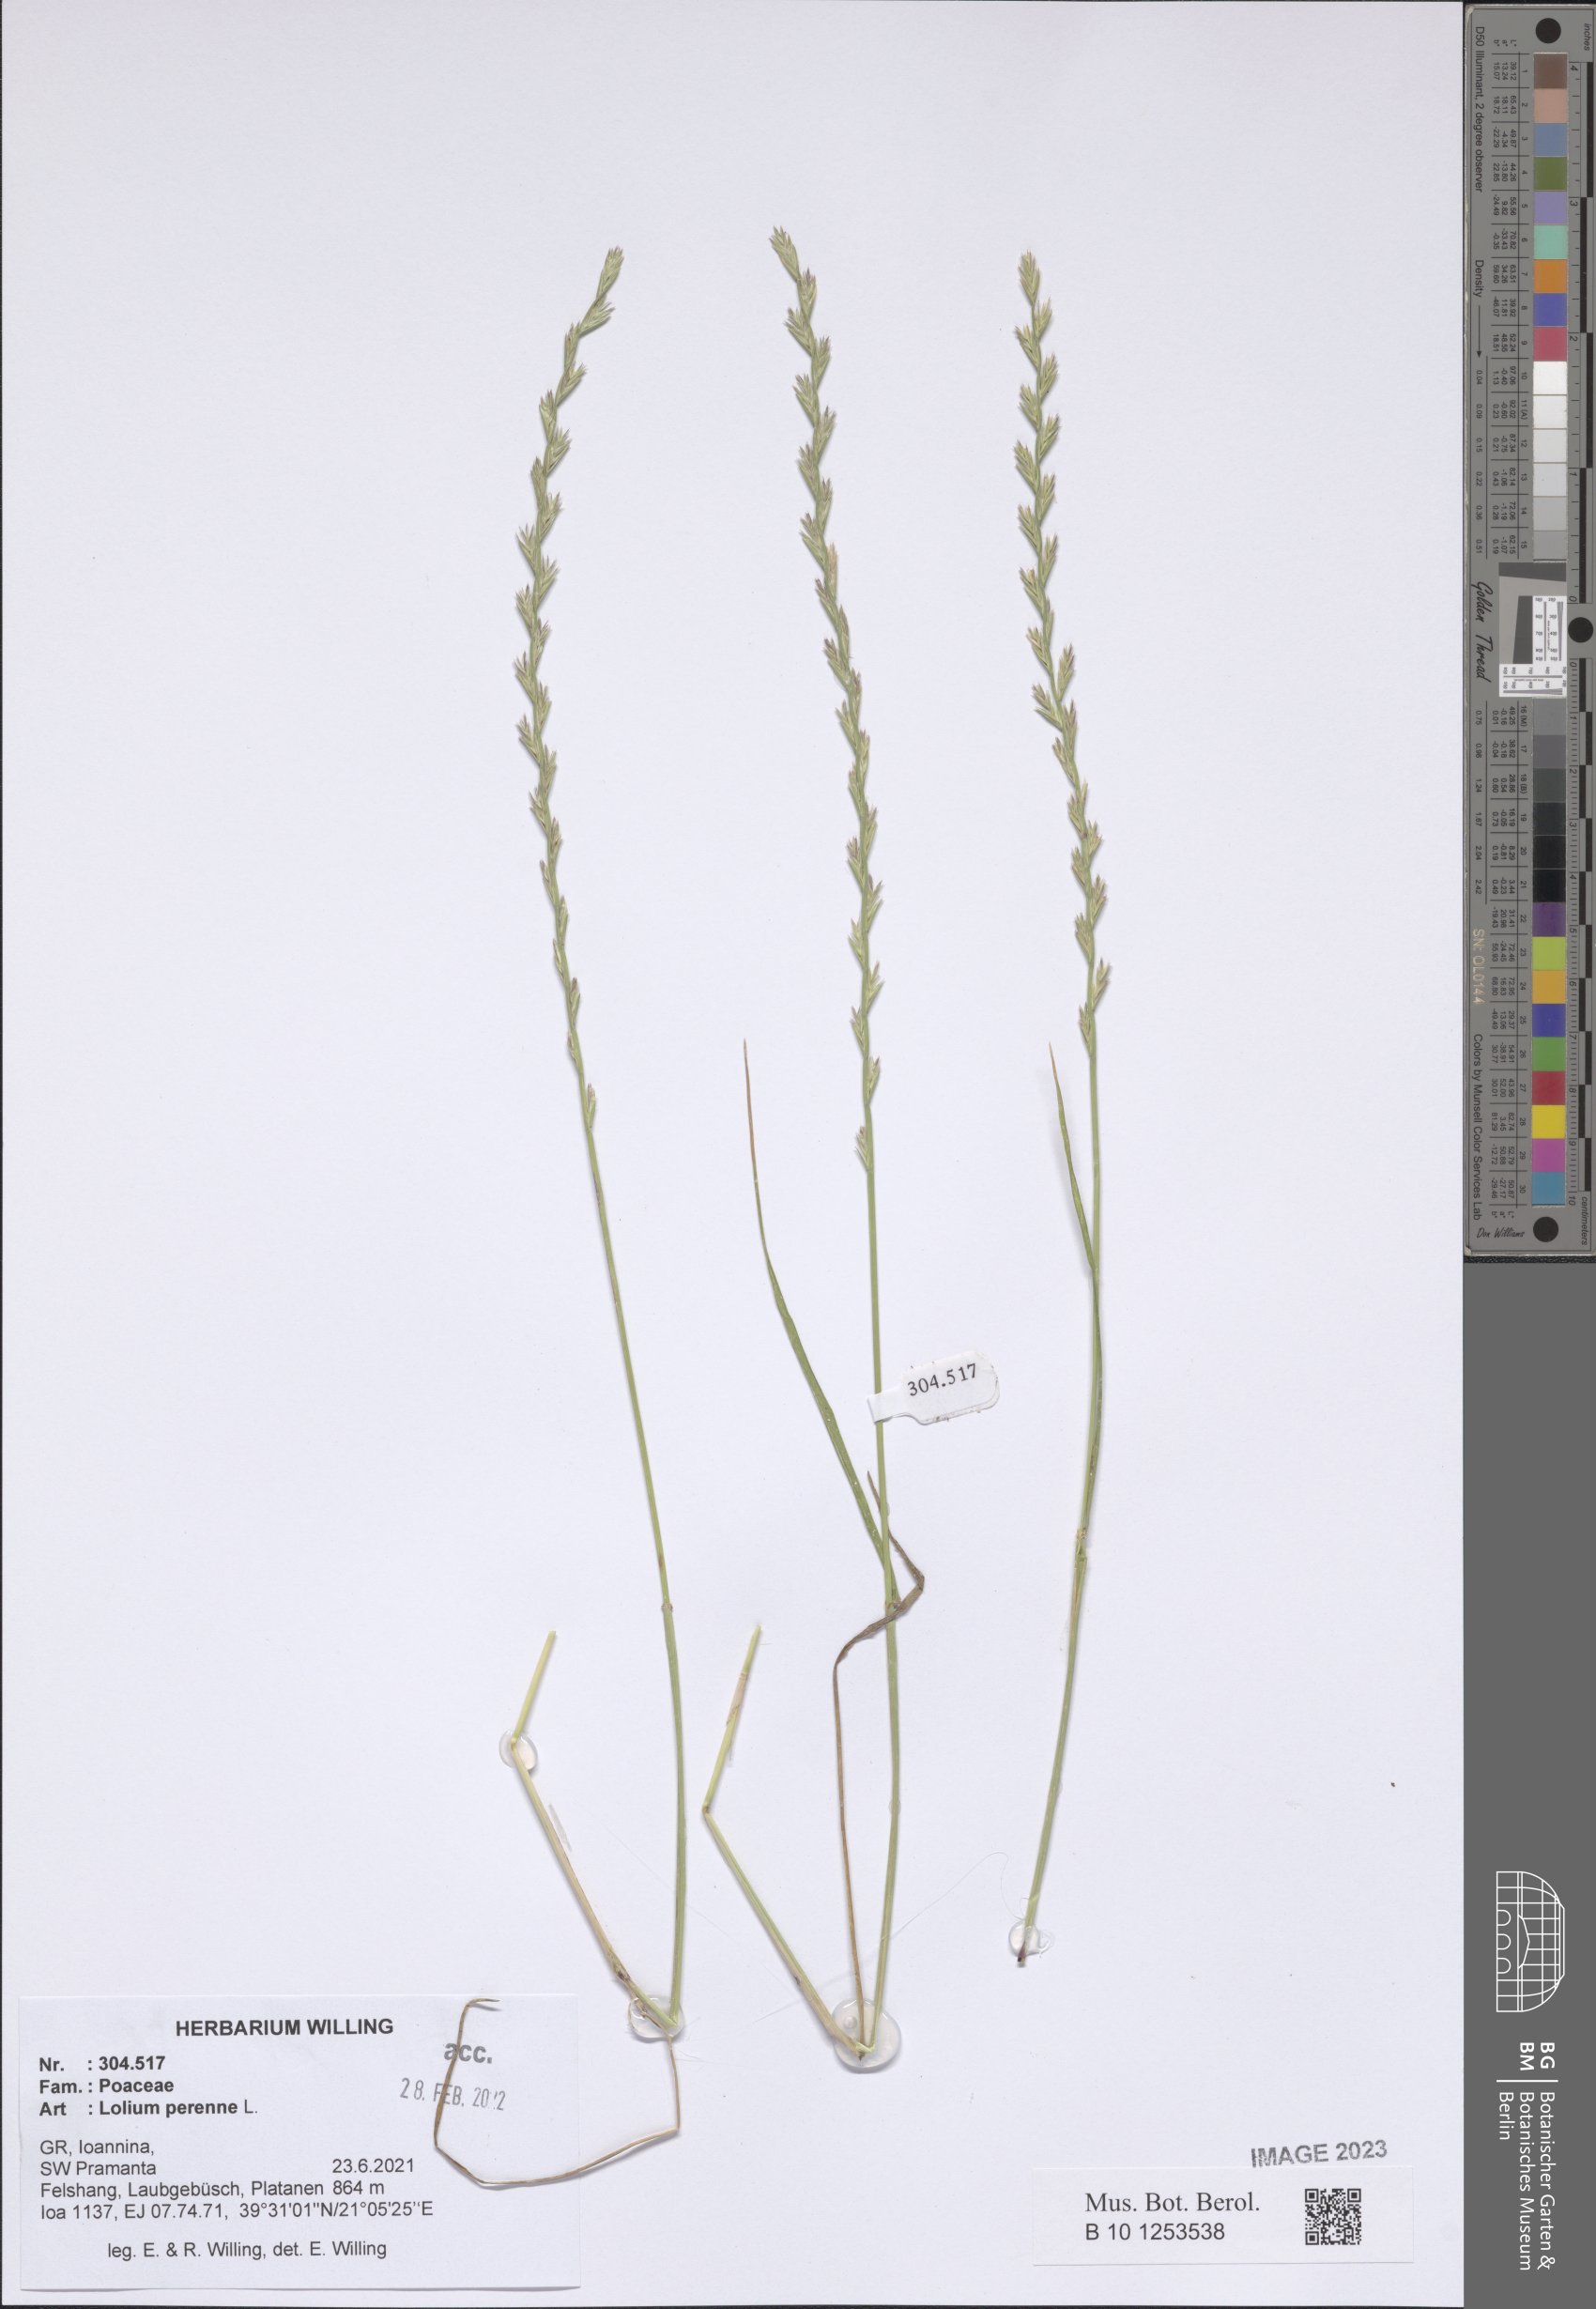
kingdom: Plantae
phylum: Tracheophyta
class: Liliopsida
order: Poales
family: Poaceae
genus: Lolium
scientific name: Lolium perenne
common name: Perennial ryegrass
